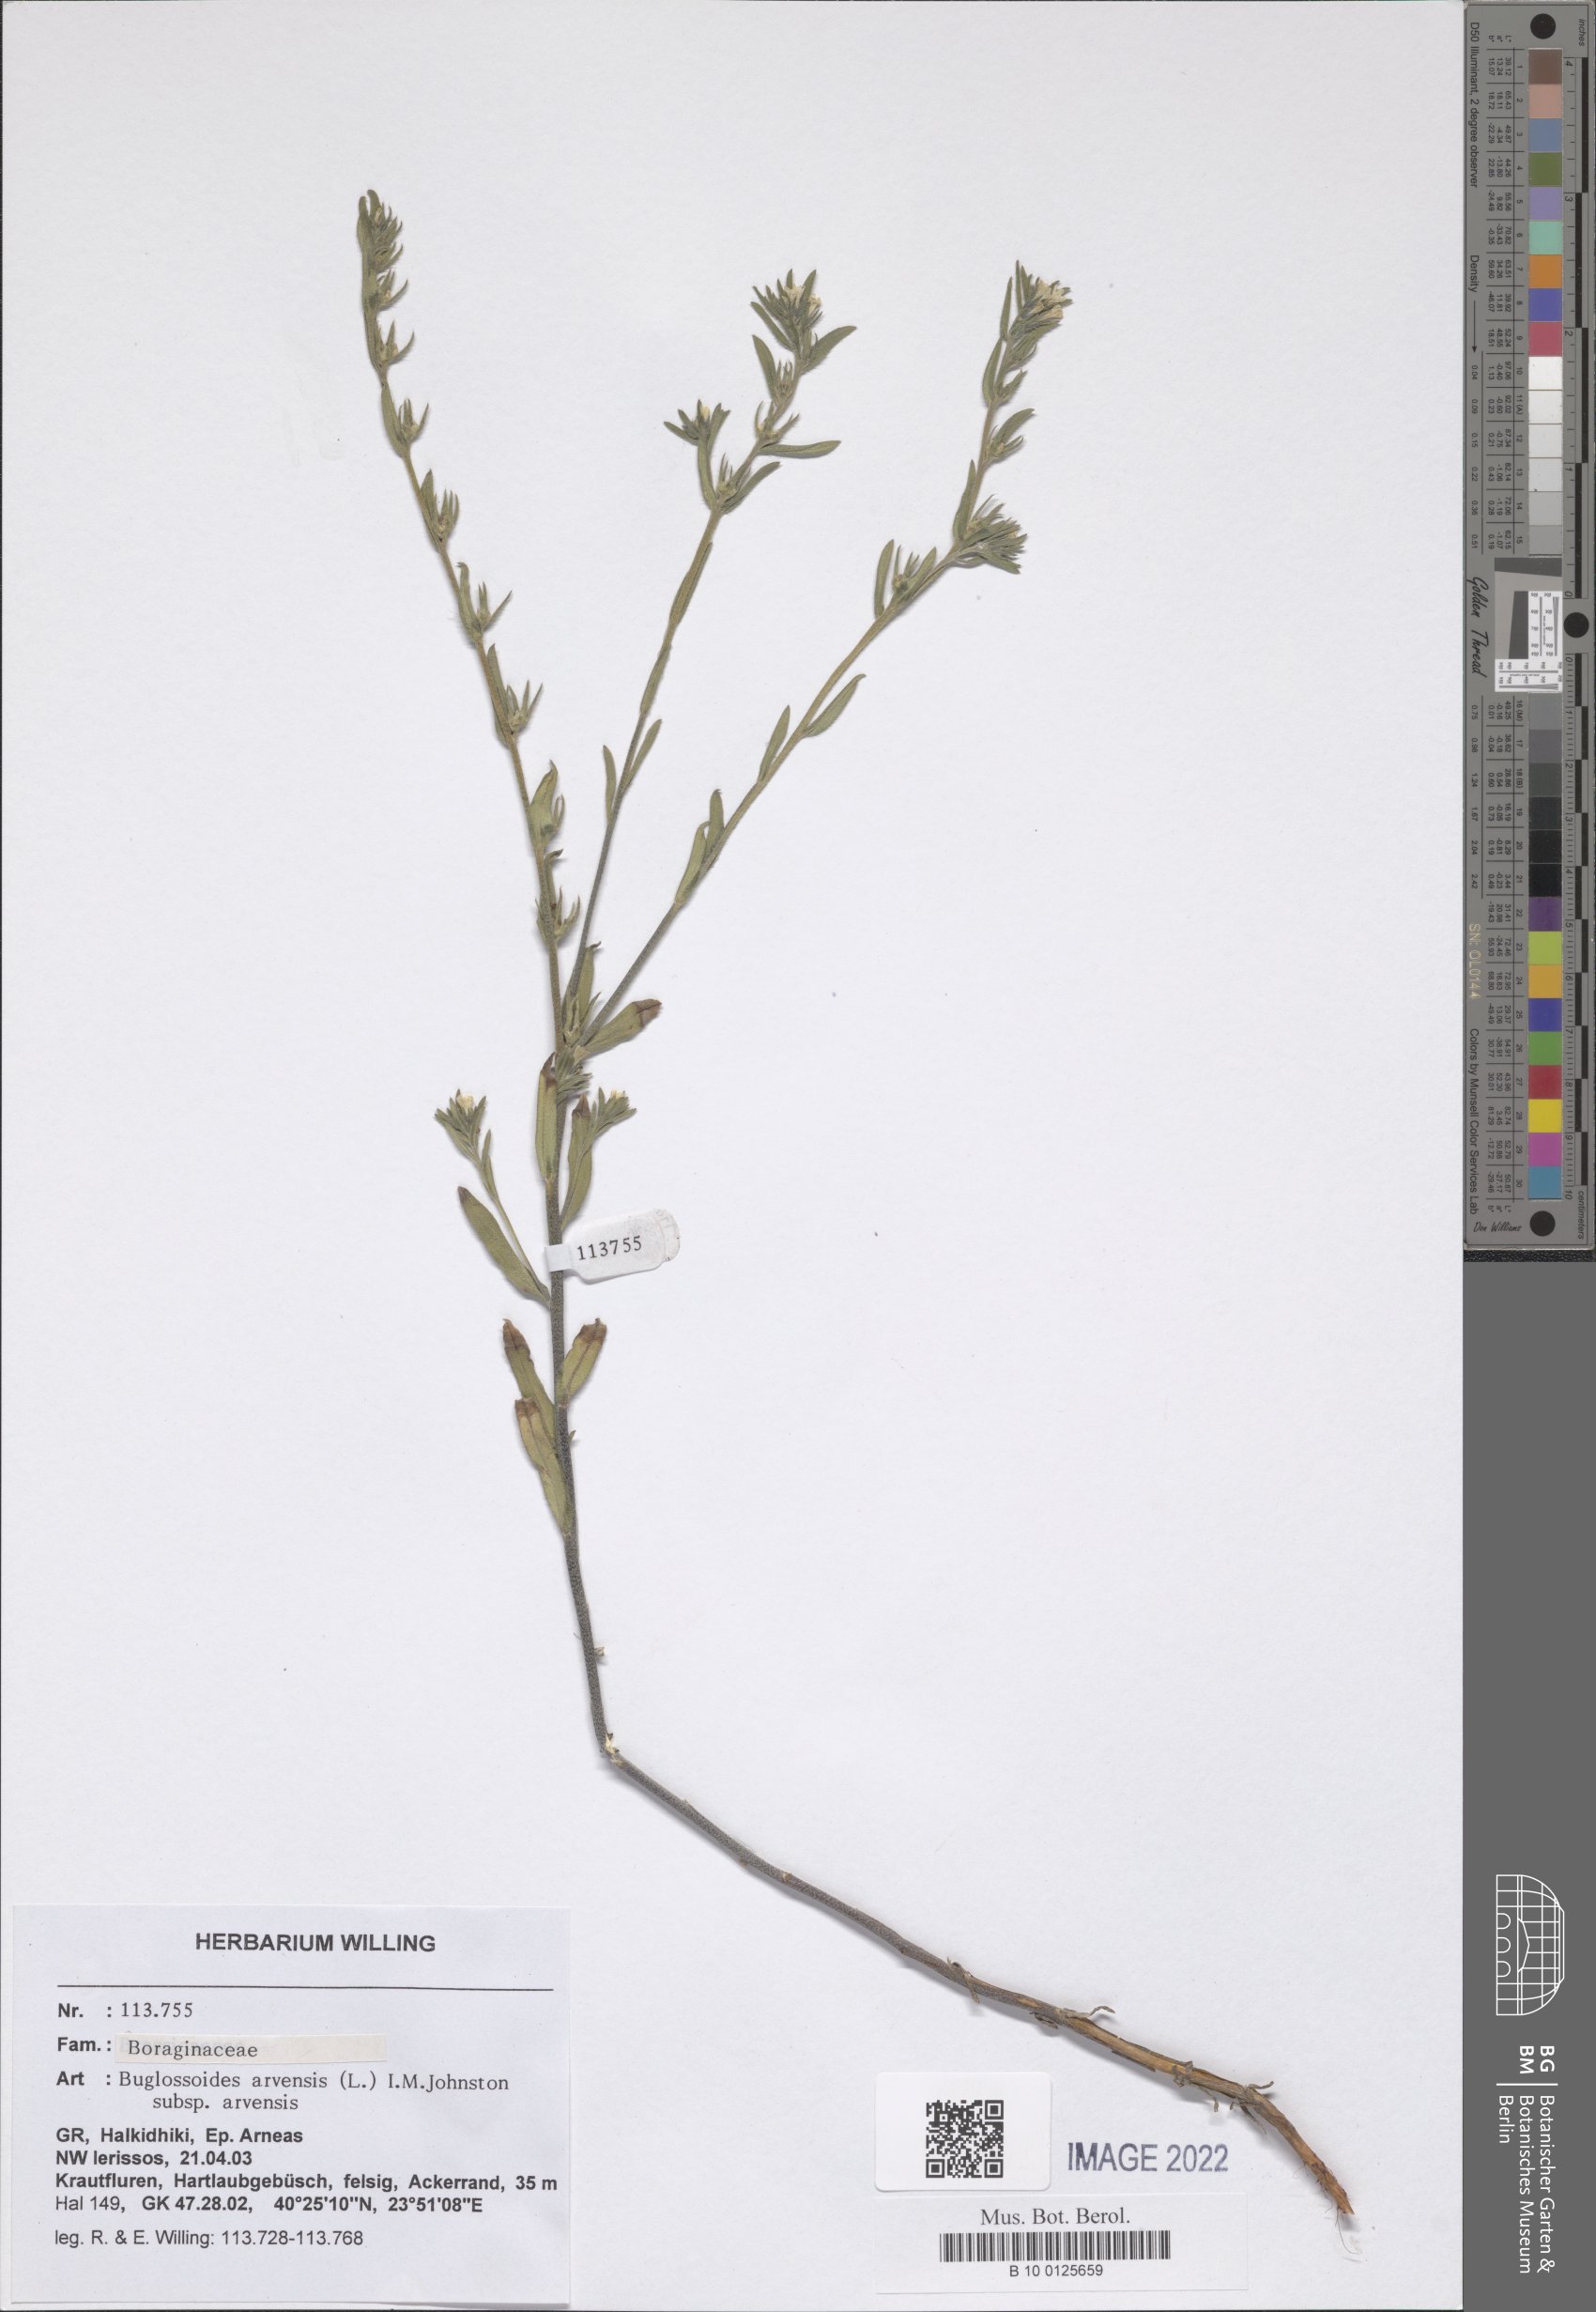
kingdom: Plantae
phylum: Tracheophyta
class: Magnoliopsida
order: Boraginales
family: Boraginaceae
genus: Buglossoides
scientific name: Buglossoides arvensis
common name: Corn gromwell
